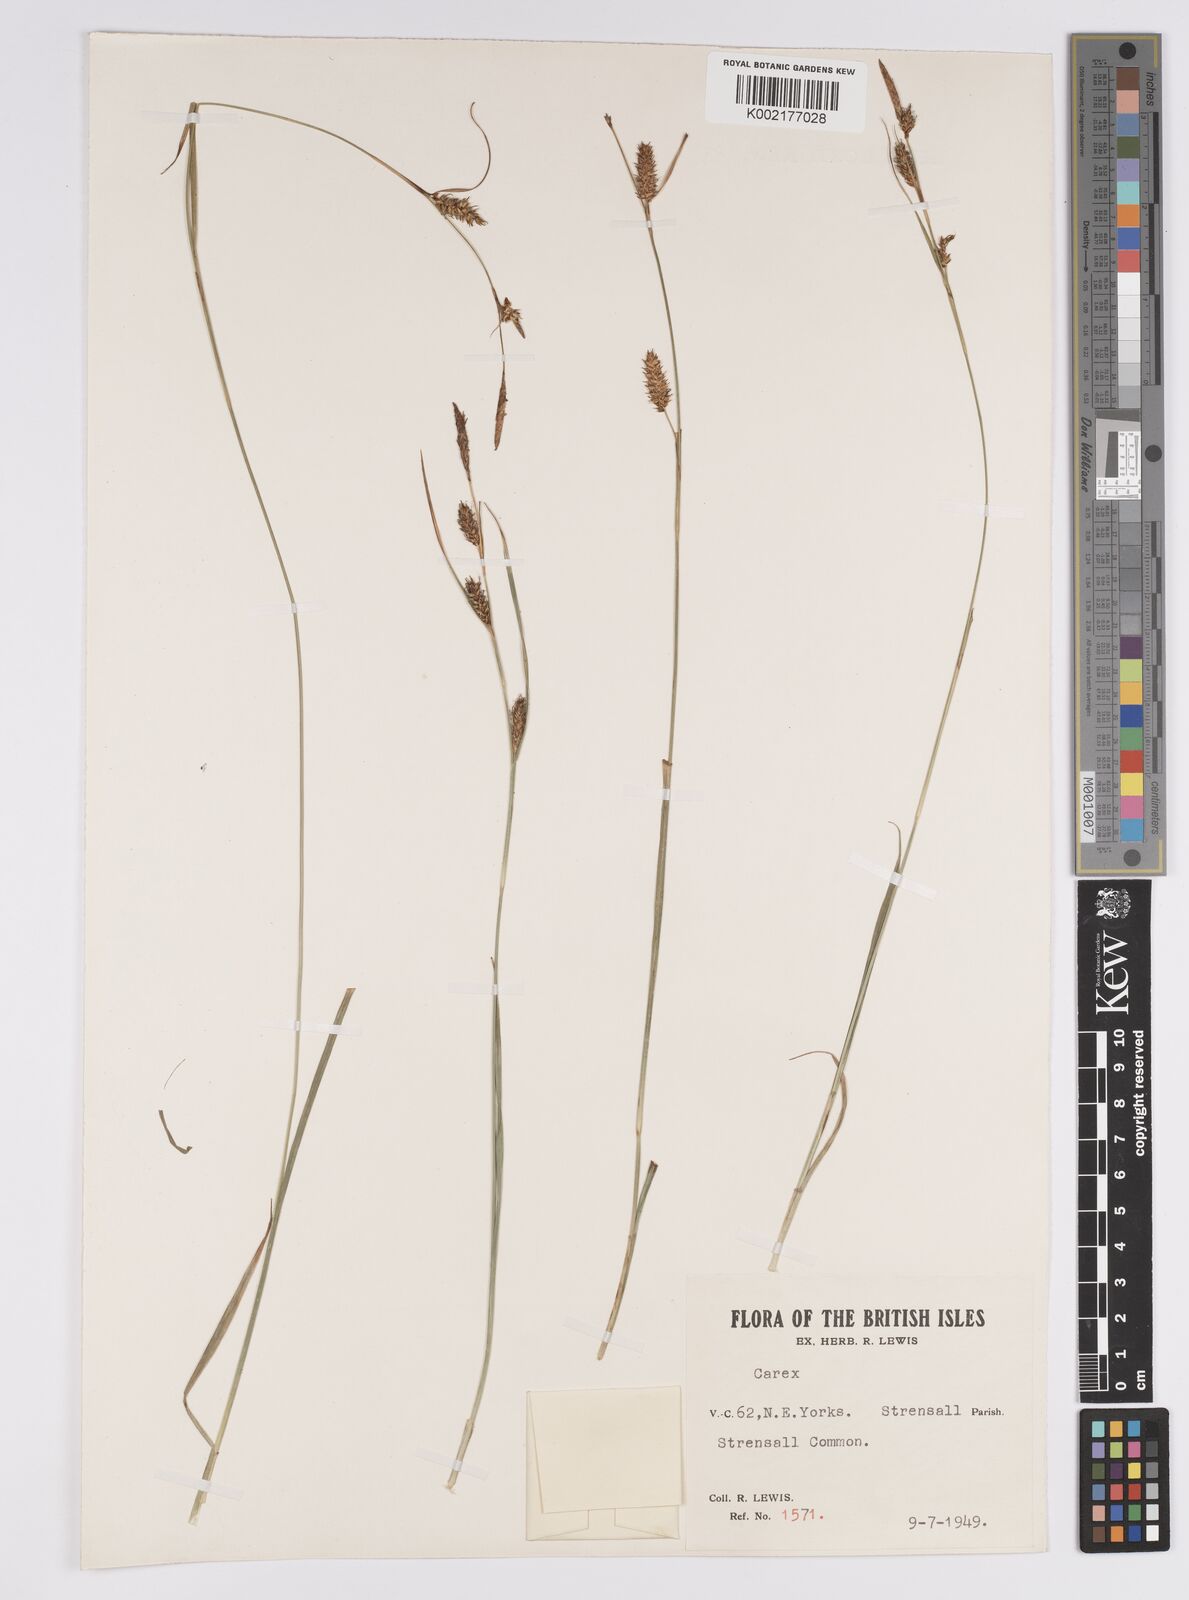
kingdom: Plantae
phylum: Tracheophyta
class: Liliopsida
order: Poales
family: Cyperaceae
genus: Carex
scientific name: Carex hostiana
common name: Tawny sedge
